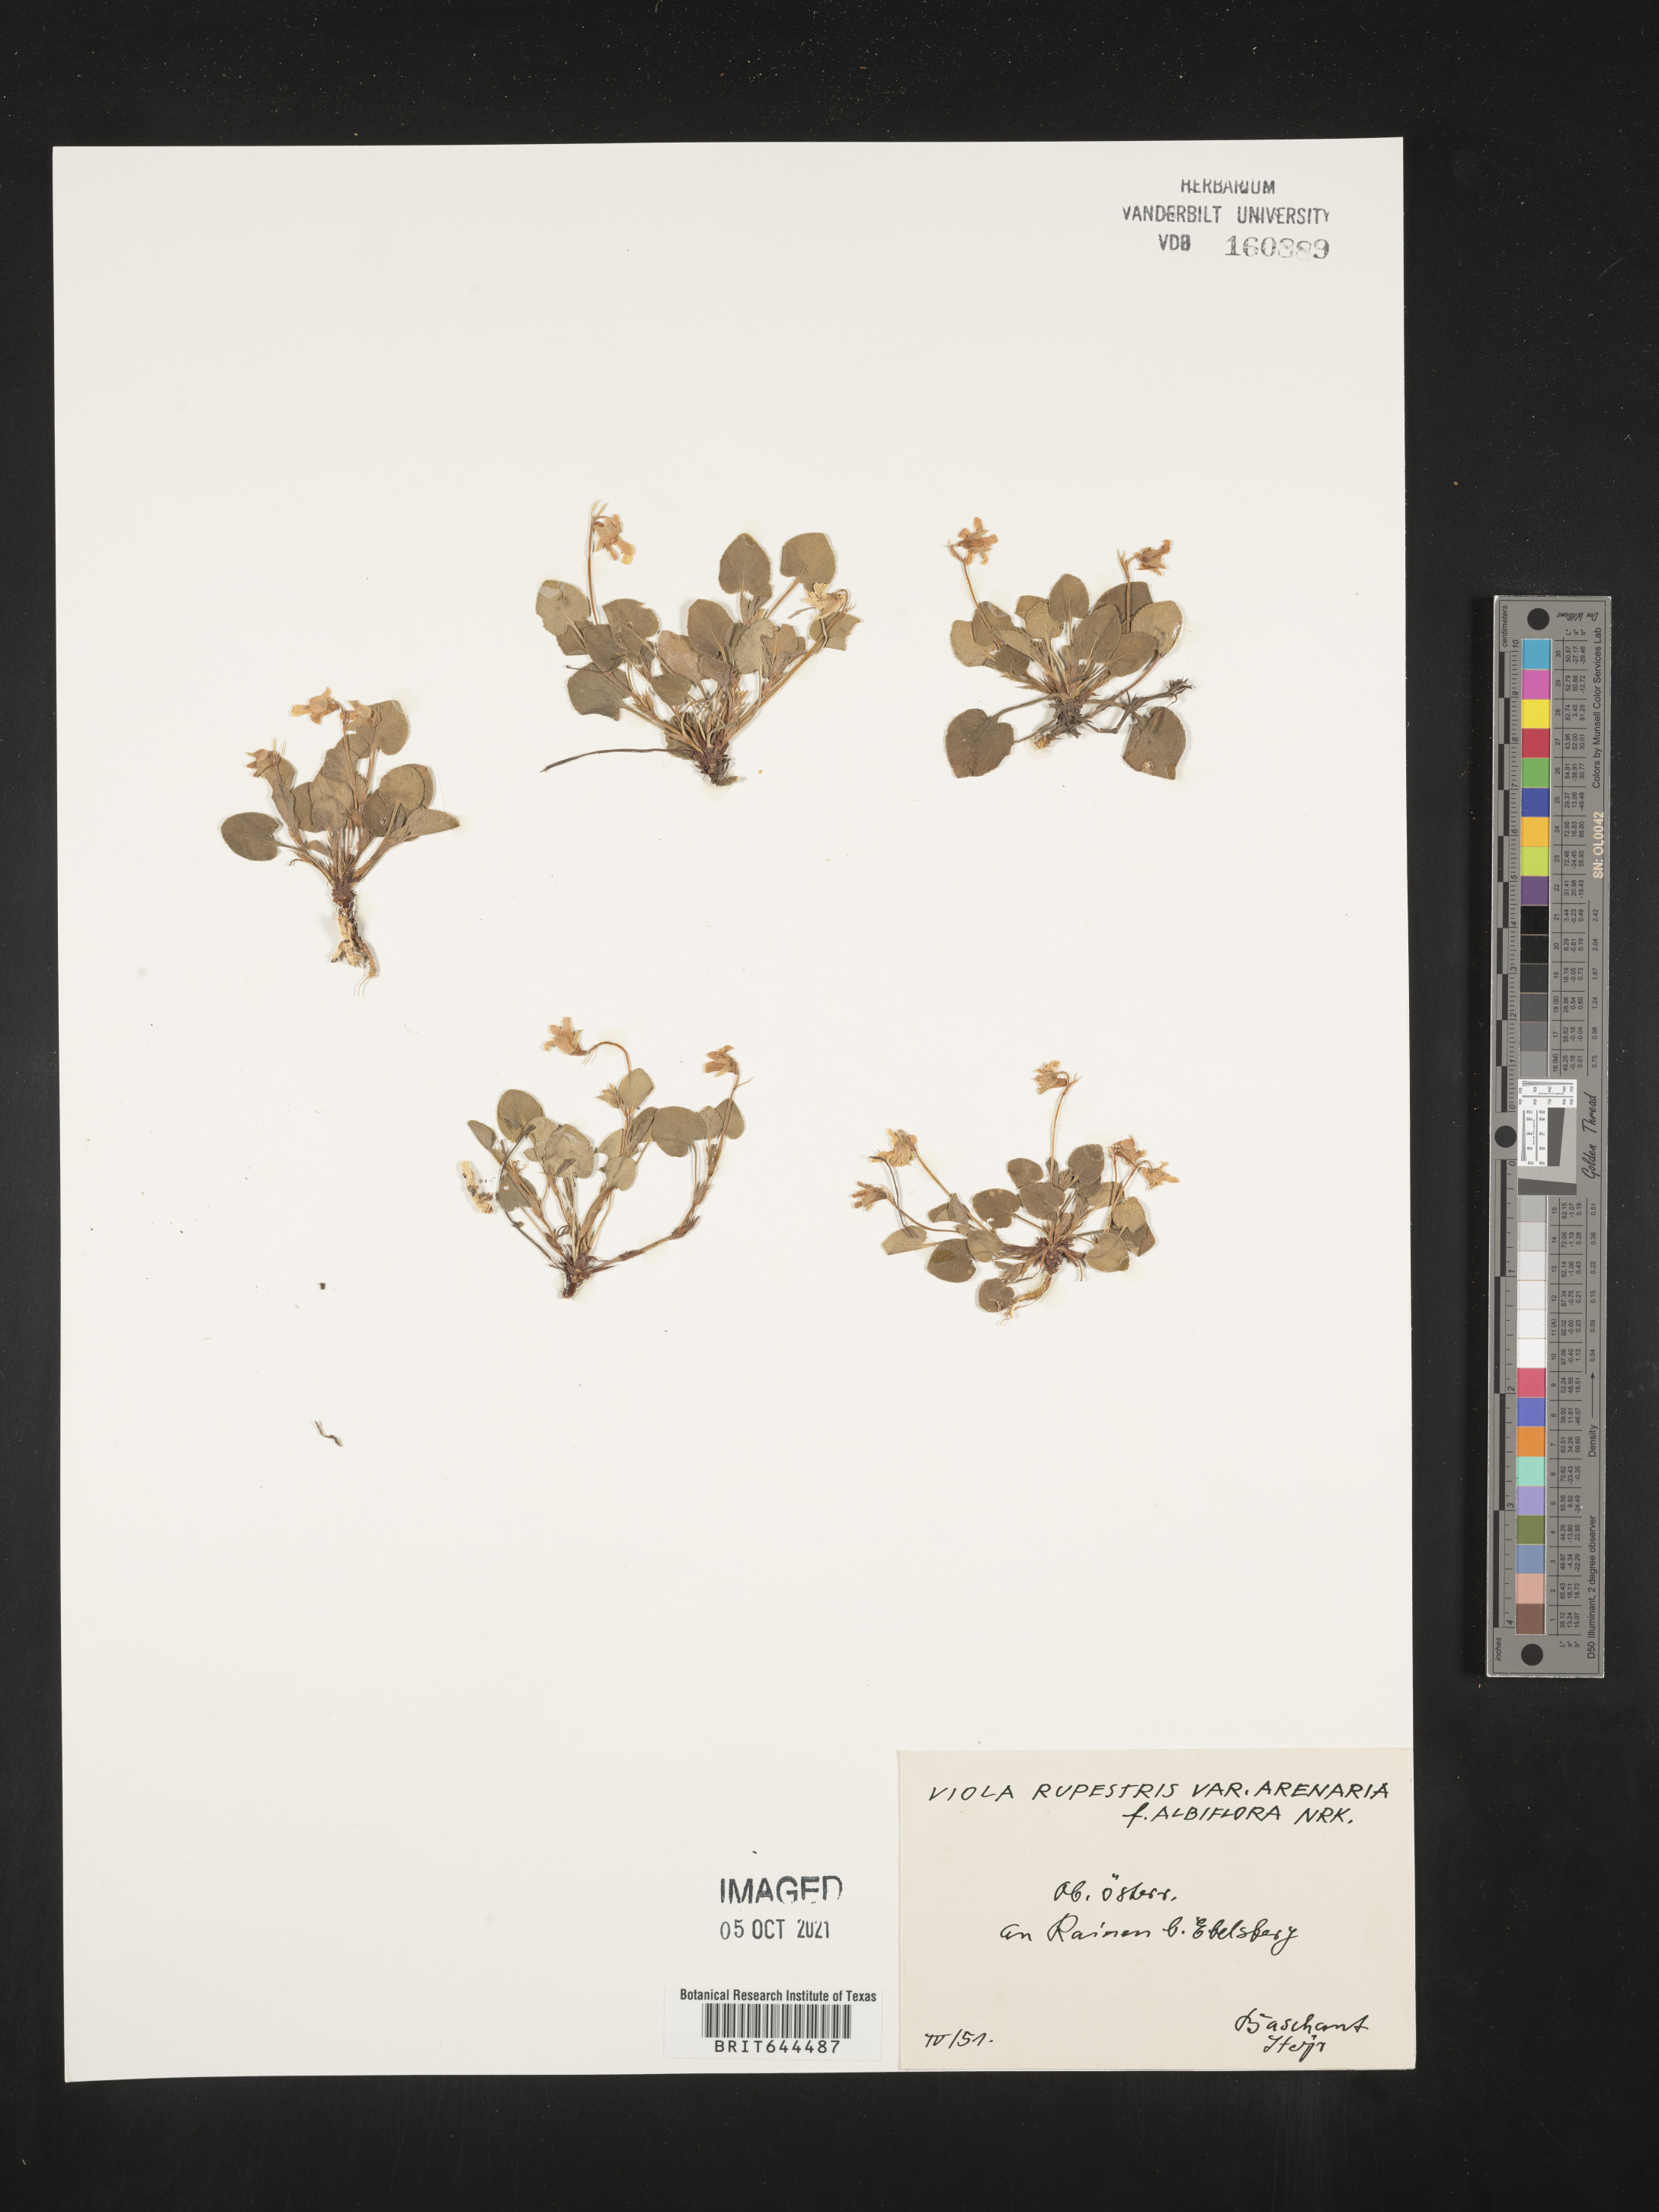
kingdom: Plantae
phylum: Tracheophyta
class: Magnoliopsida
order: Malpighiales
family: Violaceae
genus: Viola
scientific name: Viola
